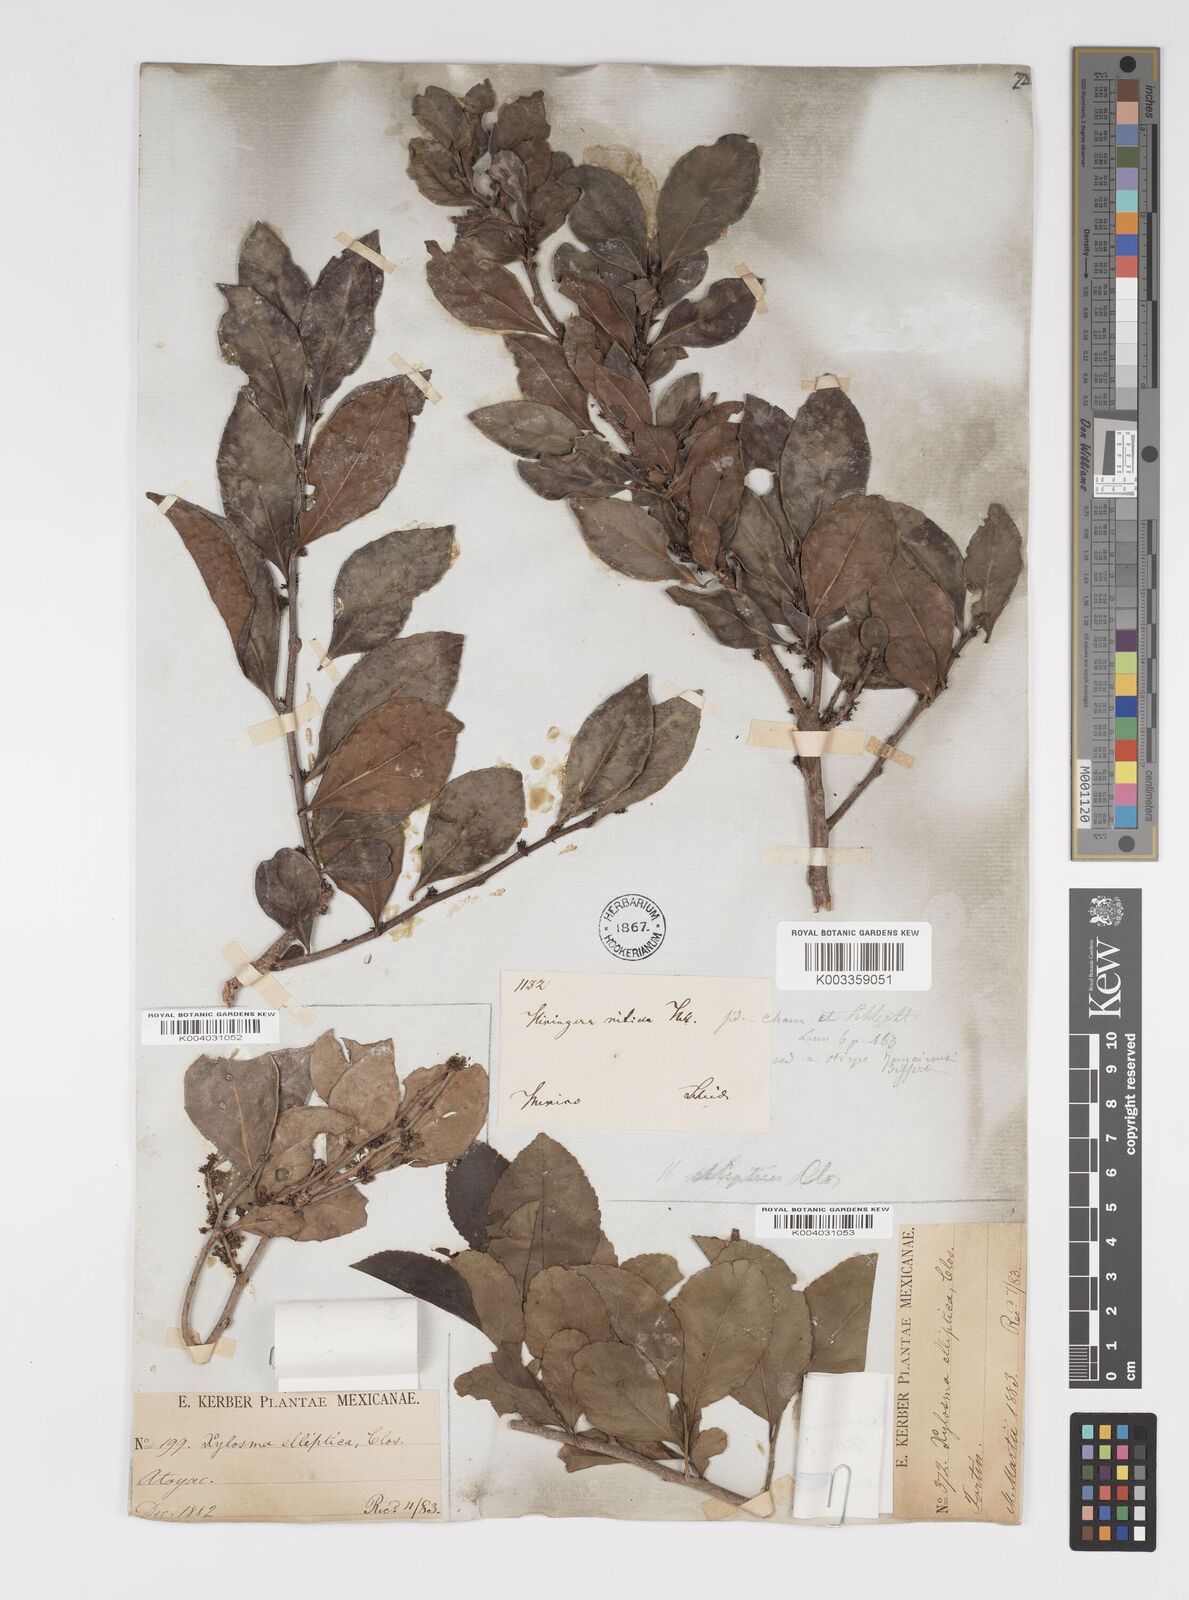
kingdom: Plantae
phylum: Tracheophyta
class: Magnoliopsida
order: Malpighiales
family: Salicaceae
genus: Xylosma
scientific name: Xylosma flexuosa
